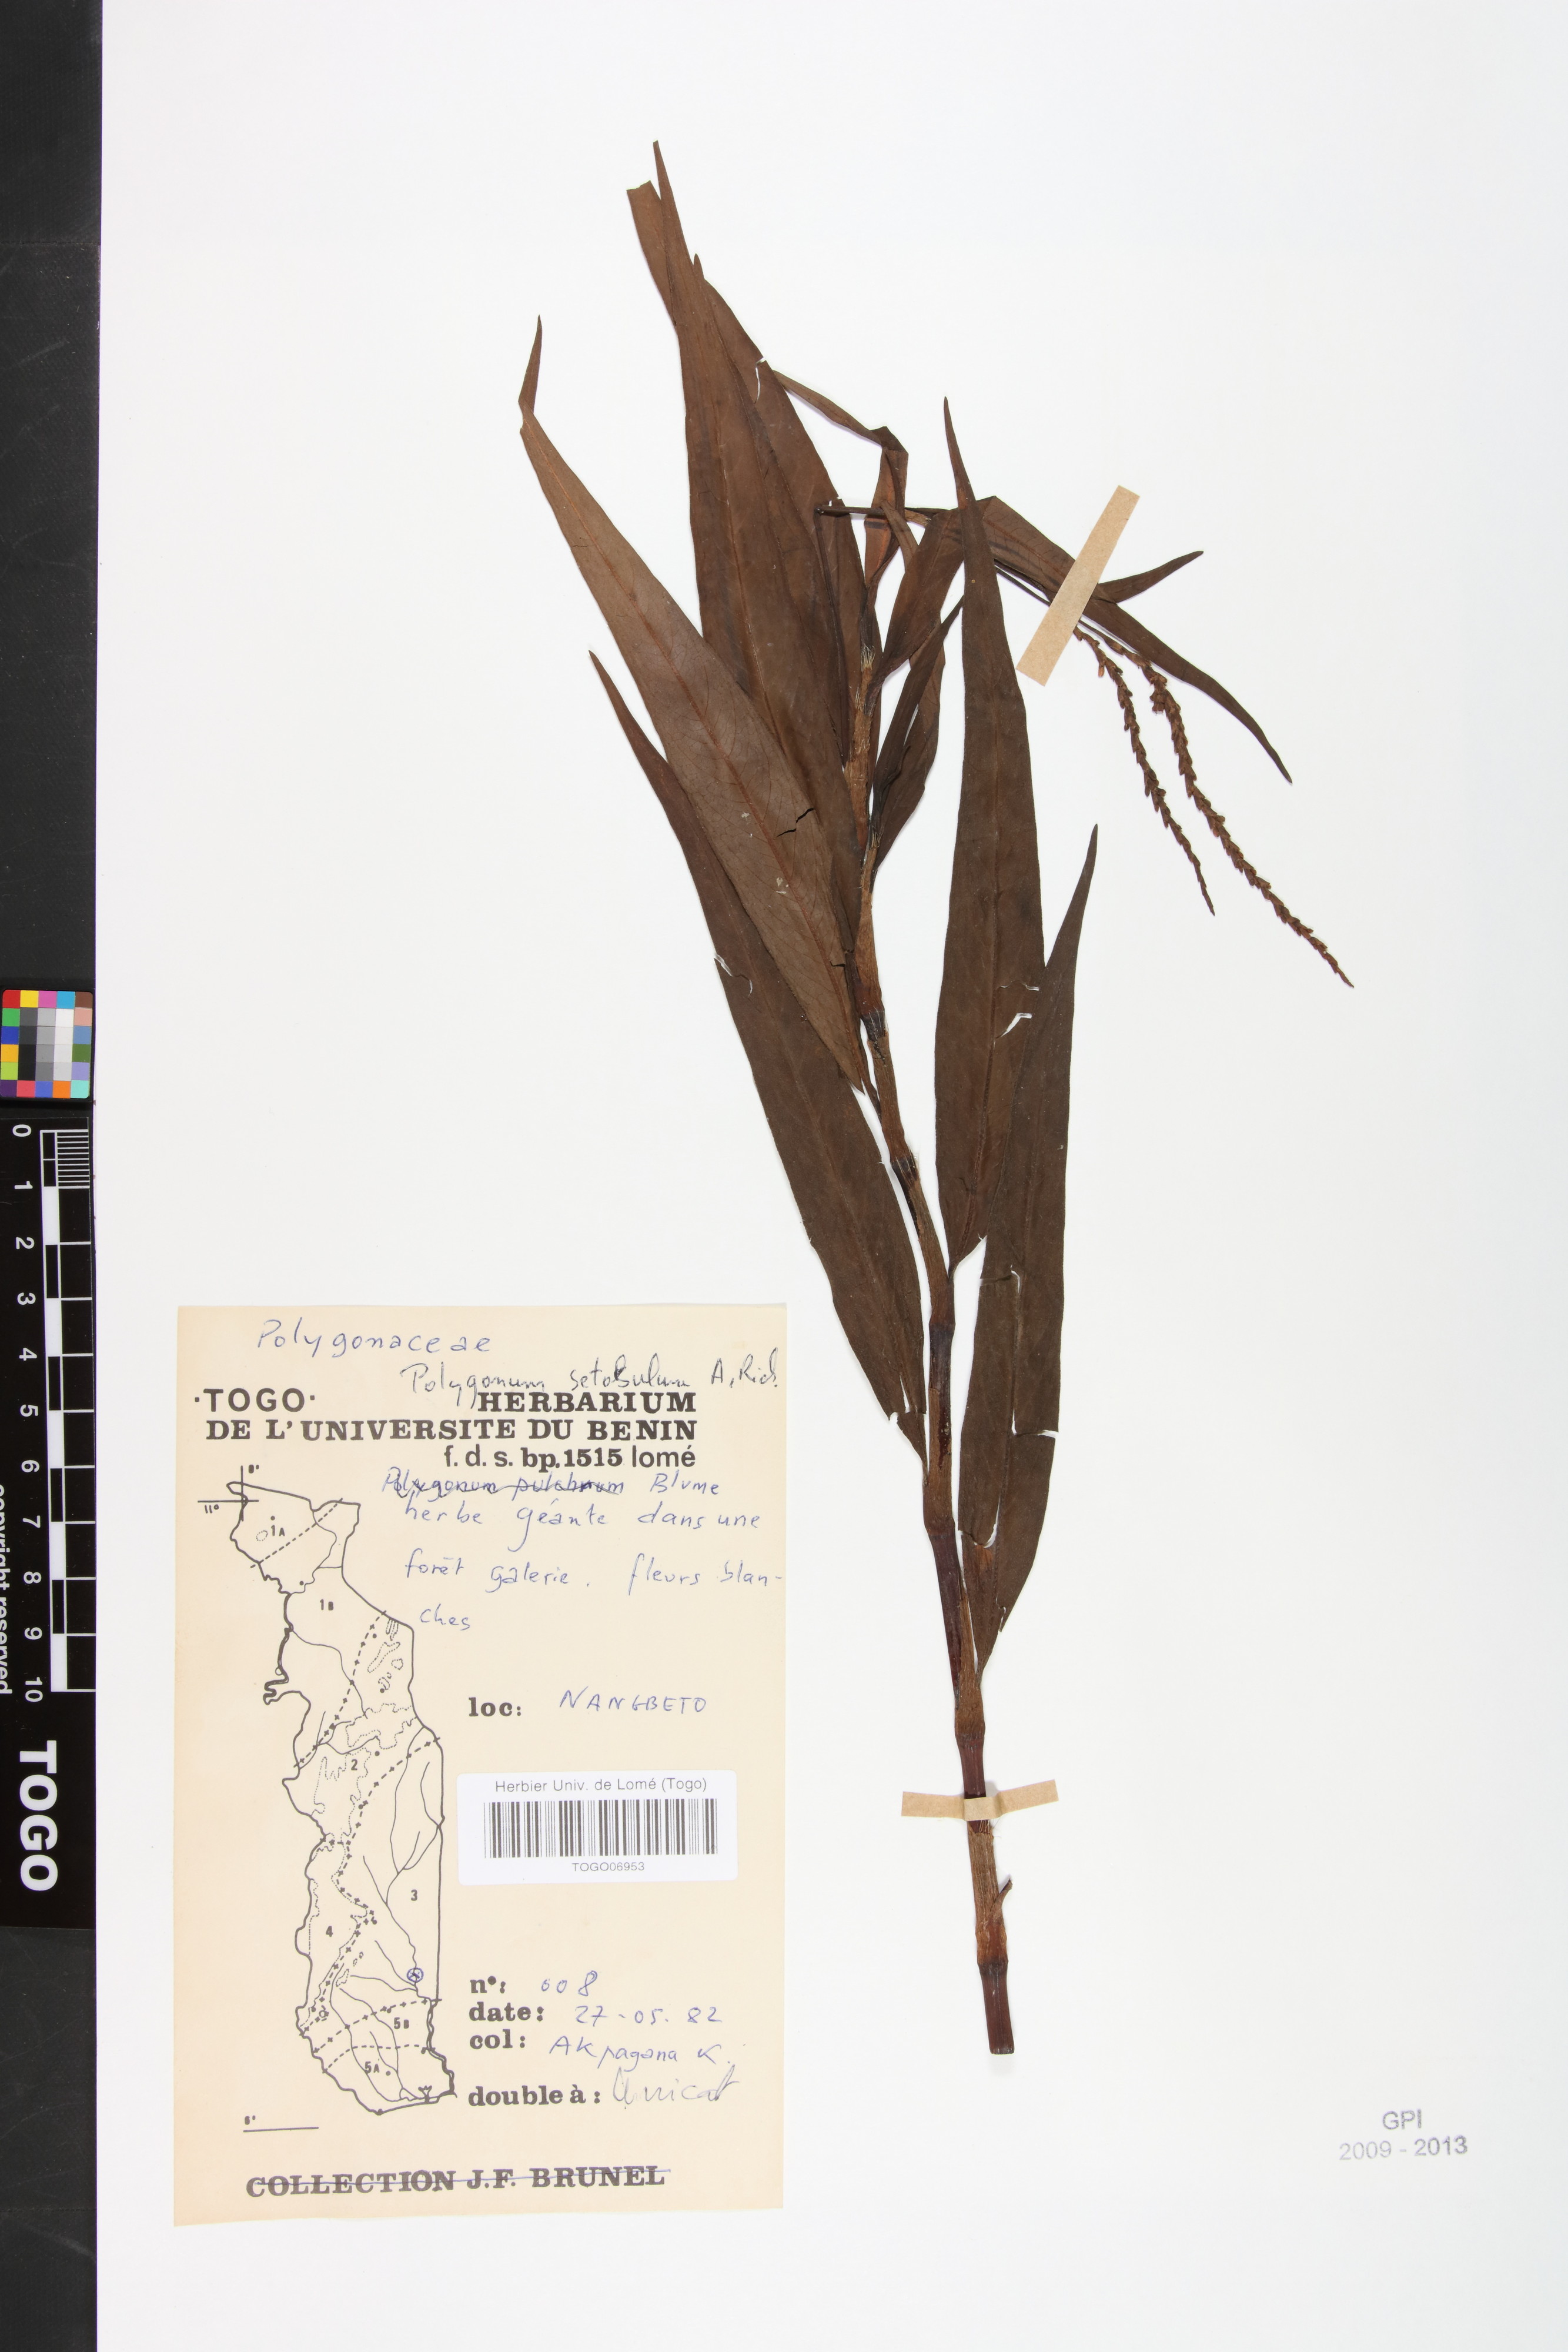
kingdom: Plantae
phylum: Tracheophyta
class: Magnoliopsida
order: Caryophyllales
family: Polygonaceae
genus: Persicaria
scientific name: Persicaria setosula
